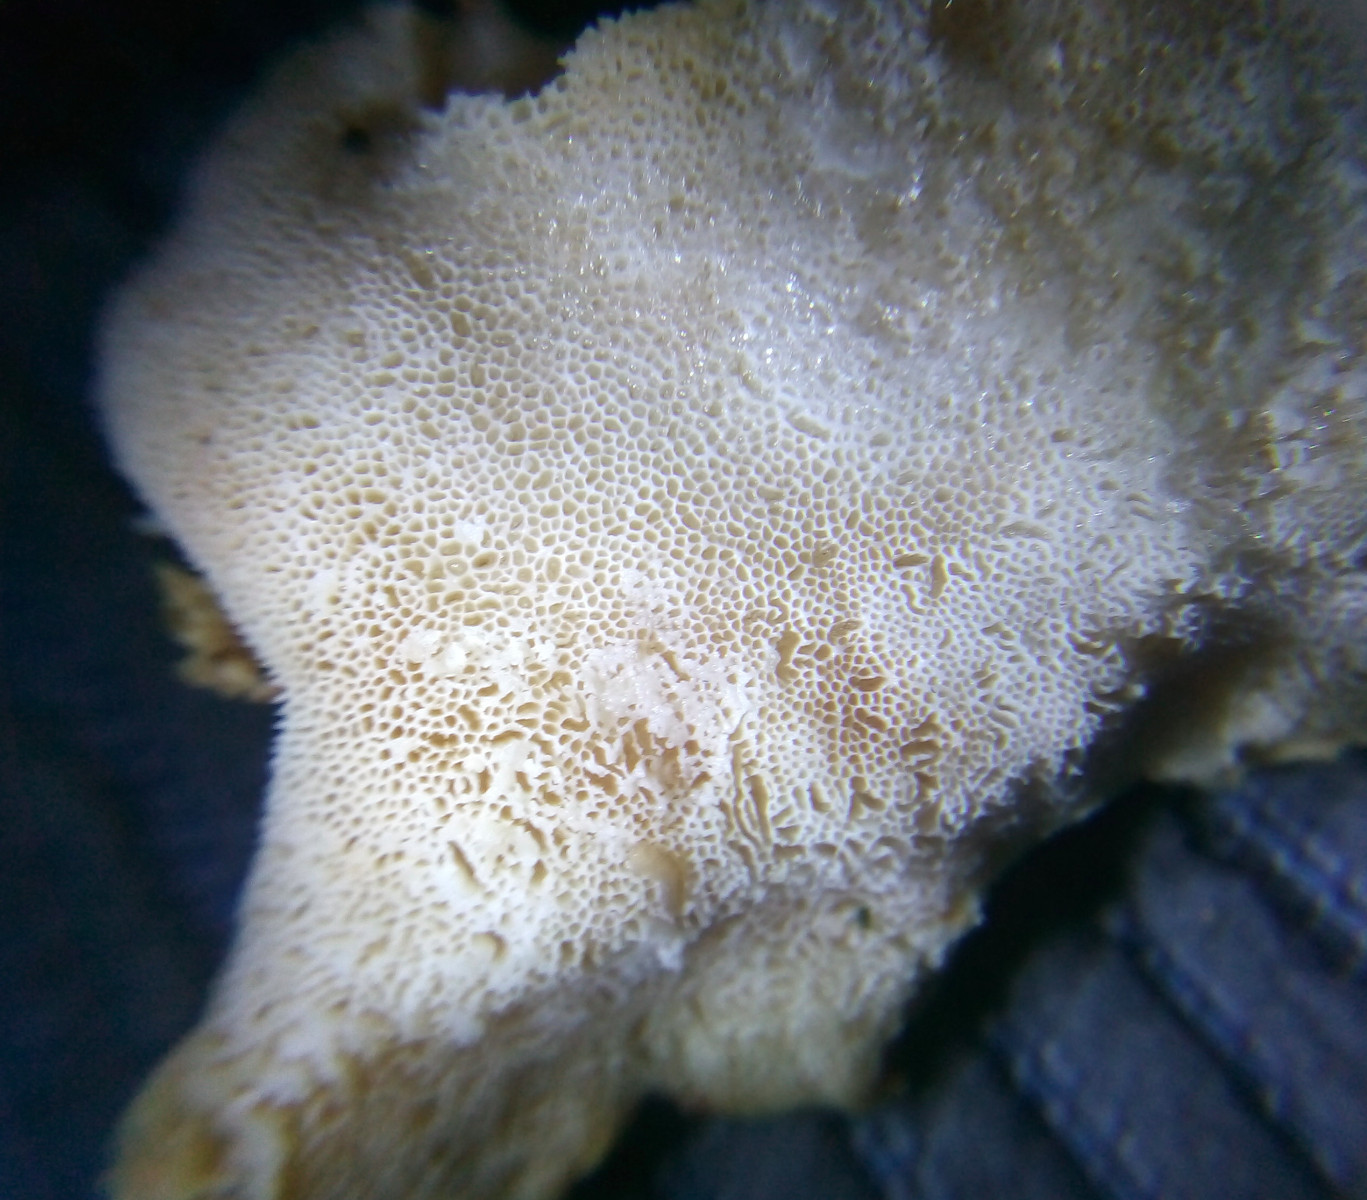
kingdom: Fungi
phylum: Basidiomycota
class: Agaricomycetes
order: Polyporales
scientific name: Polyporales
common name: poresvampordenen
